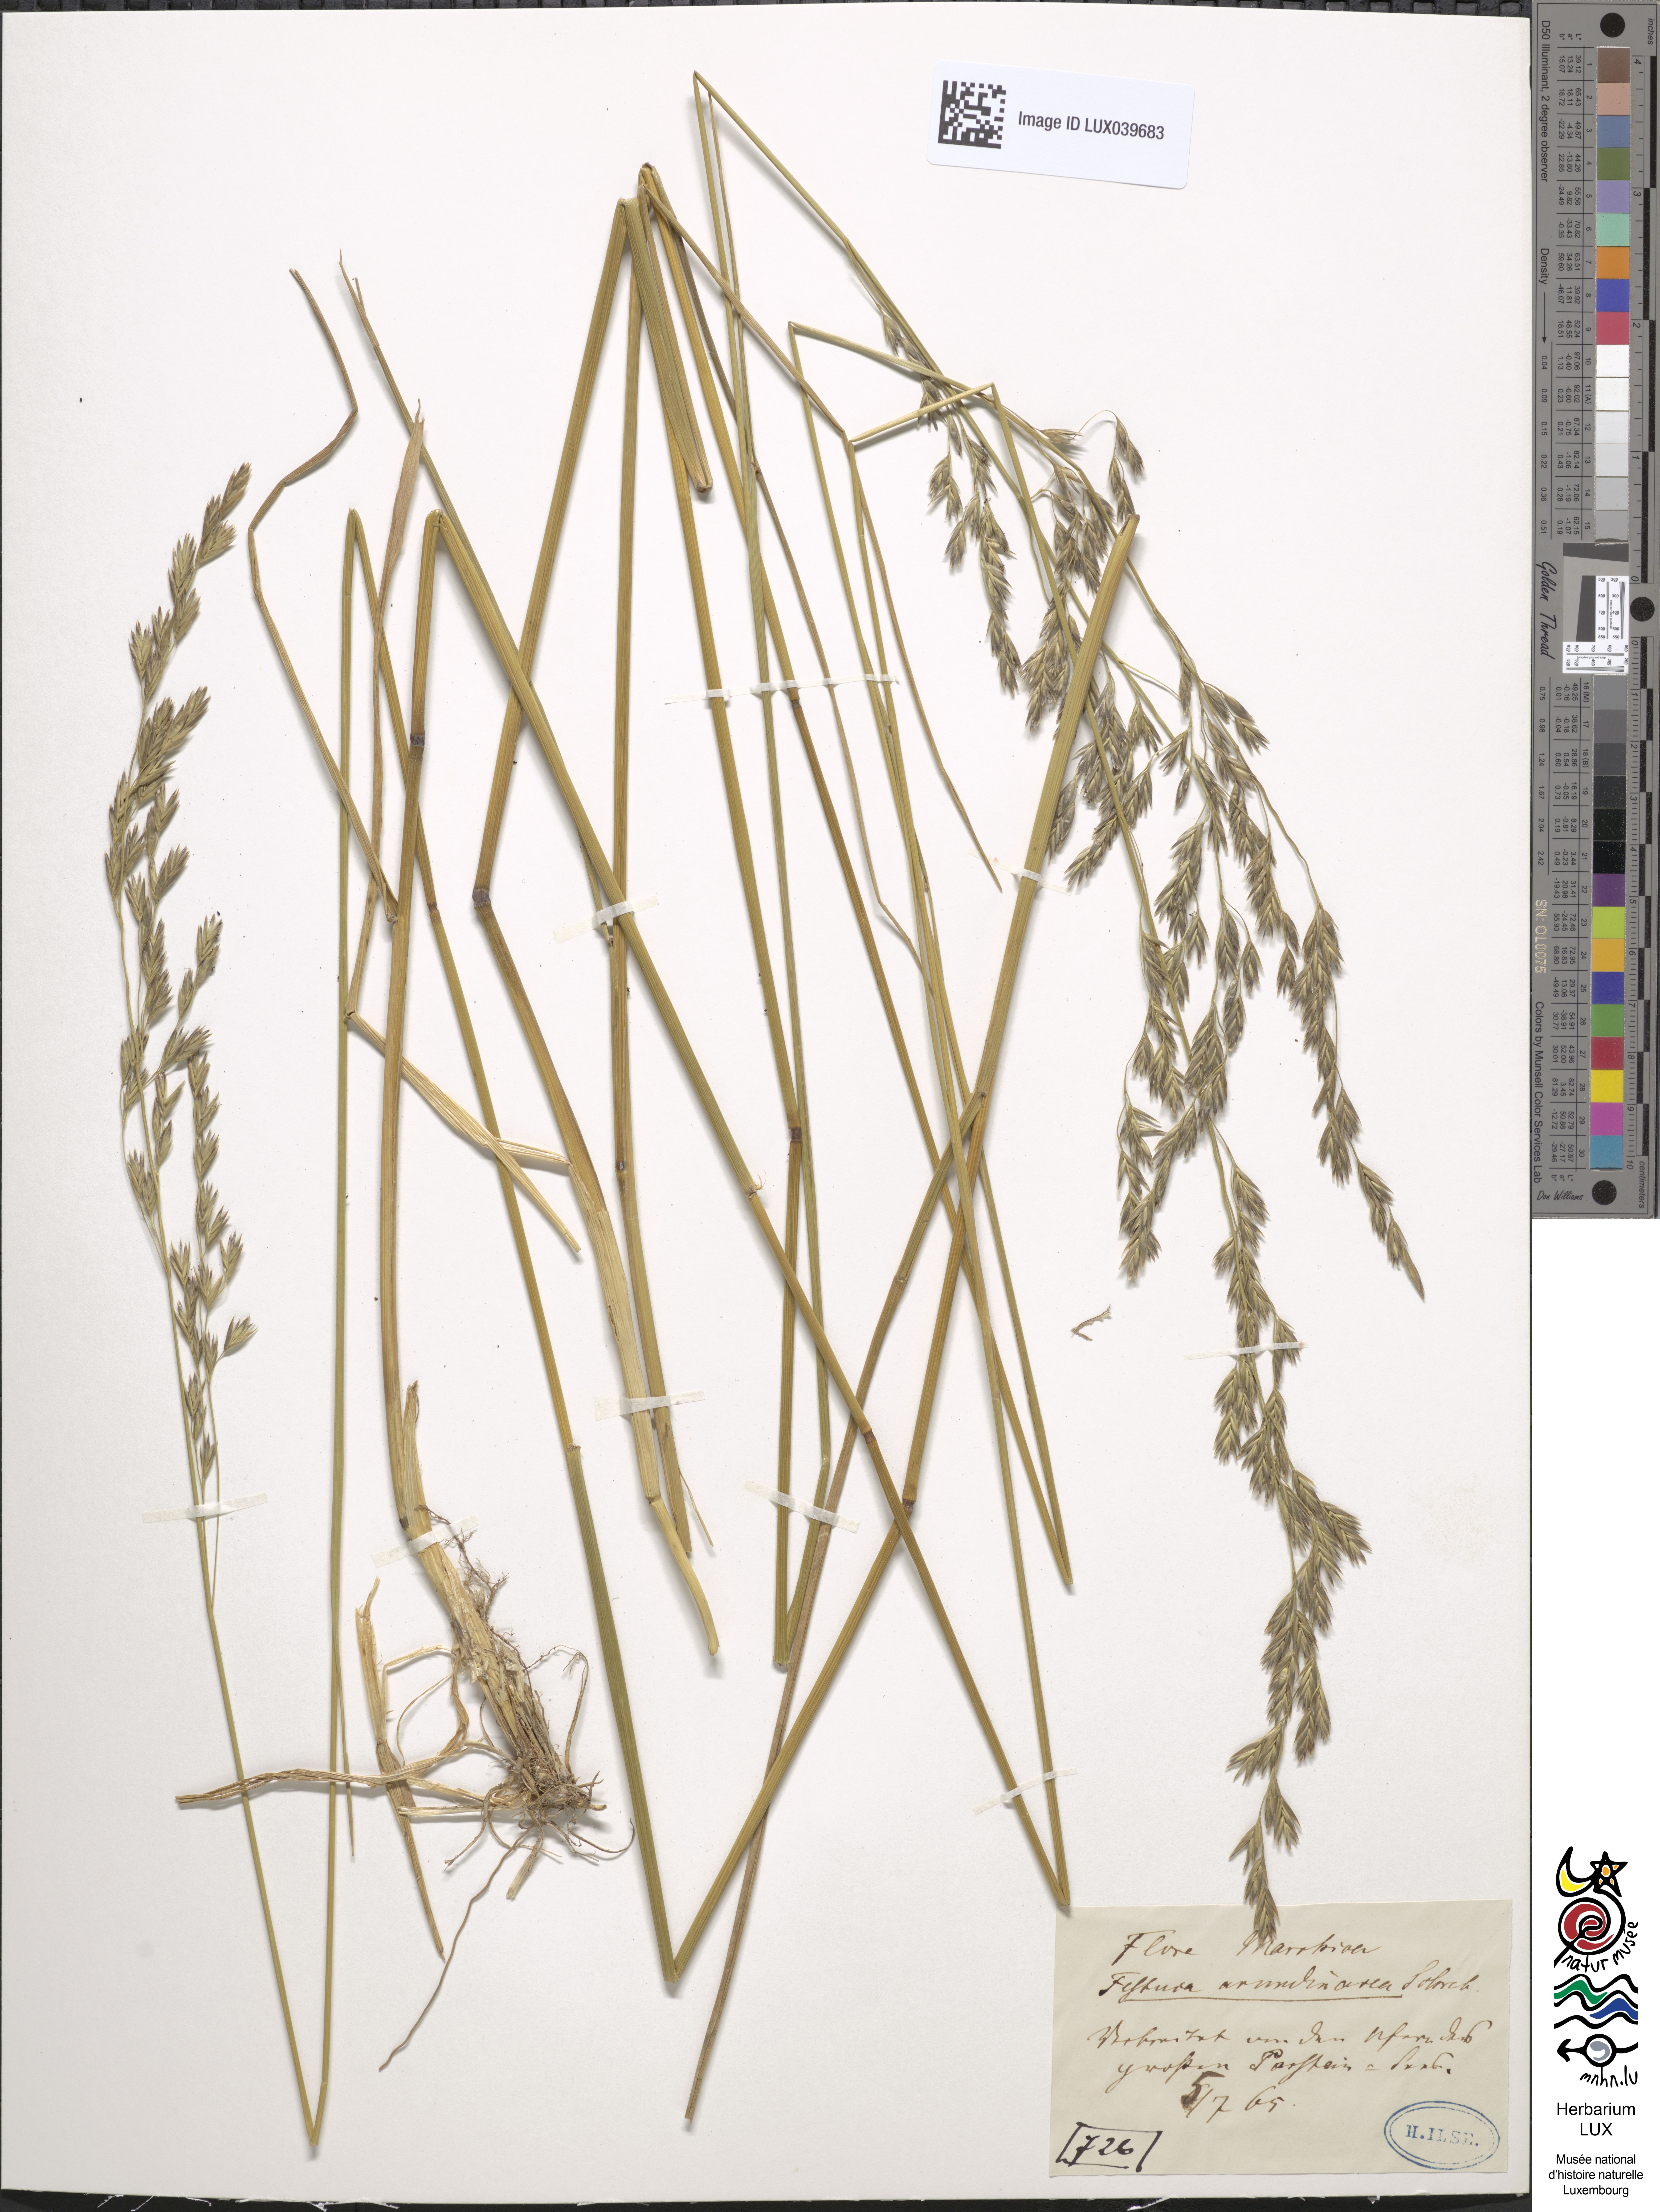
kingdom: Plantae
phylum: Tracheophyta
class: Liliopsida
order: Poales
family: Poaceae
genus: Lolium
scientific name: Lolium arundinaceum
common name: Reed fescue
